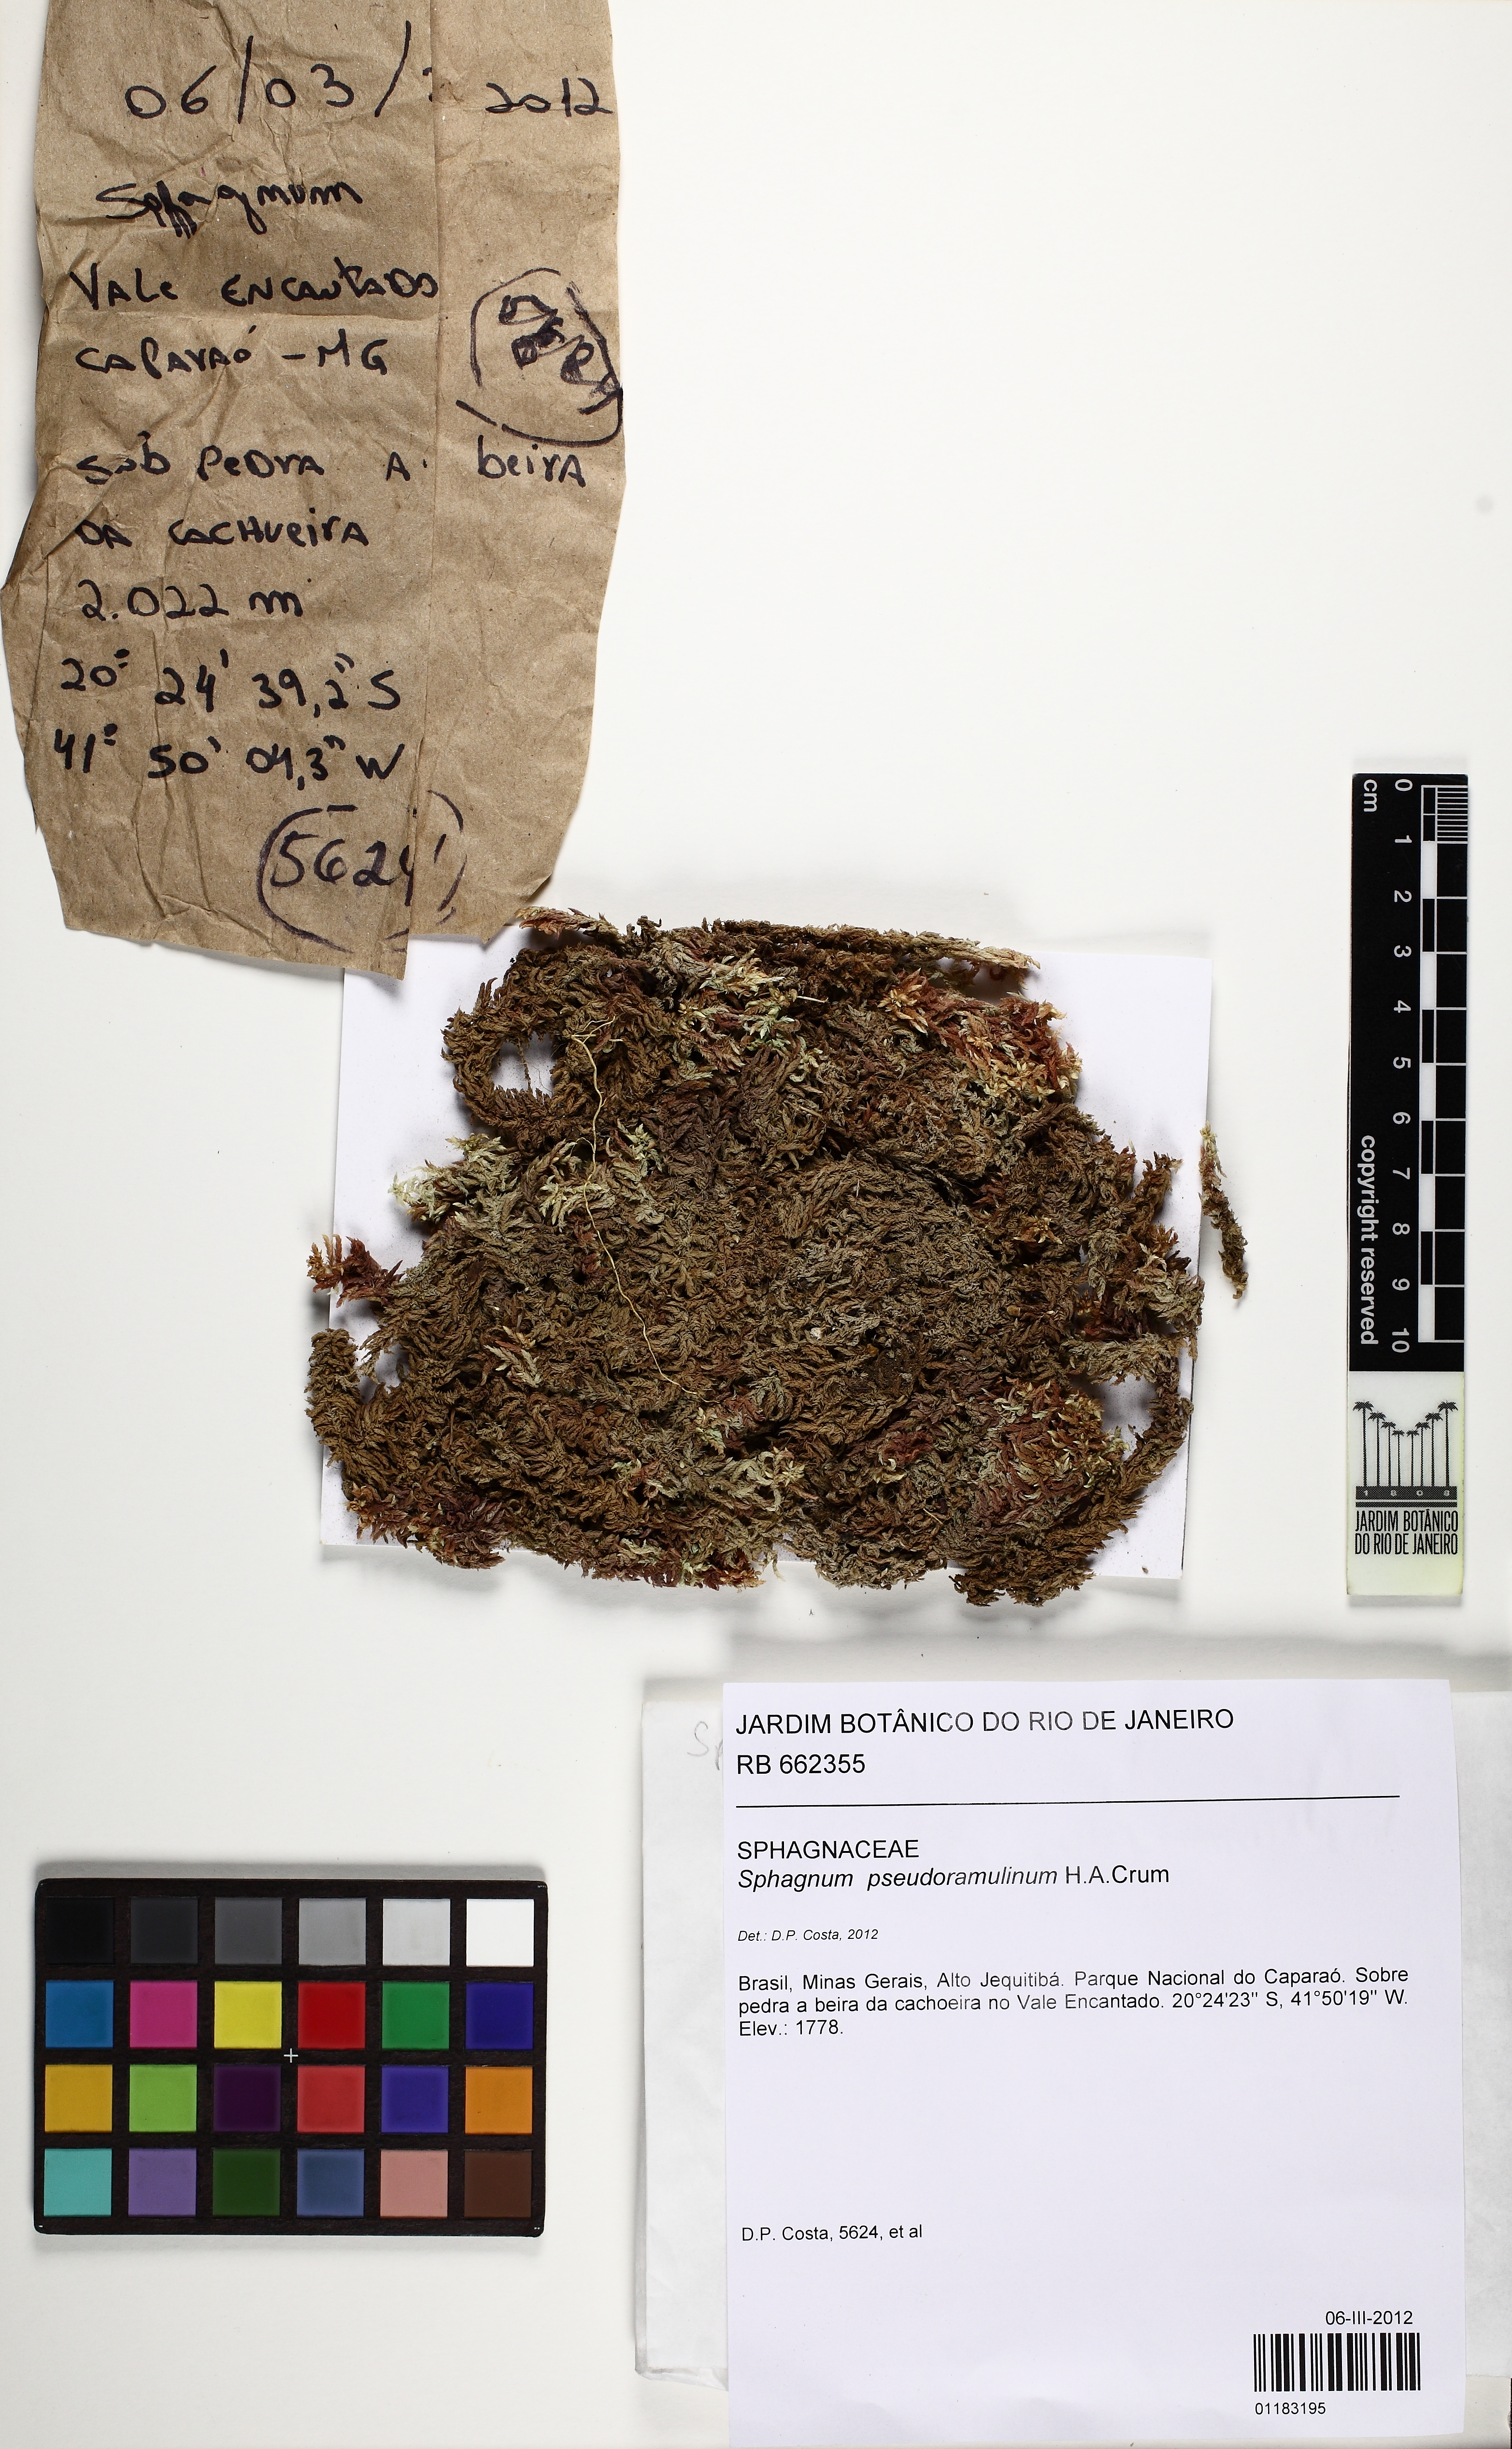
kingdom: Plantae
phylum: Bryophyta
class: Sphagnopsida
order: Sphagnales
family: Sphagnaceae
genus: Sphagnum
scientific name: Sphagnum pseudoramulinum
